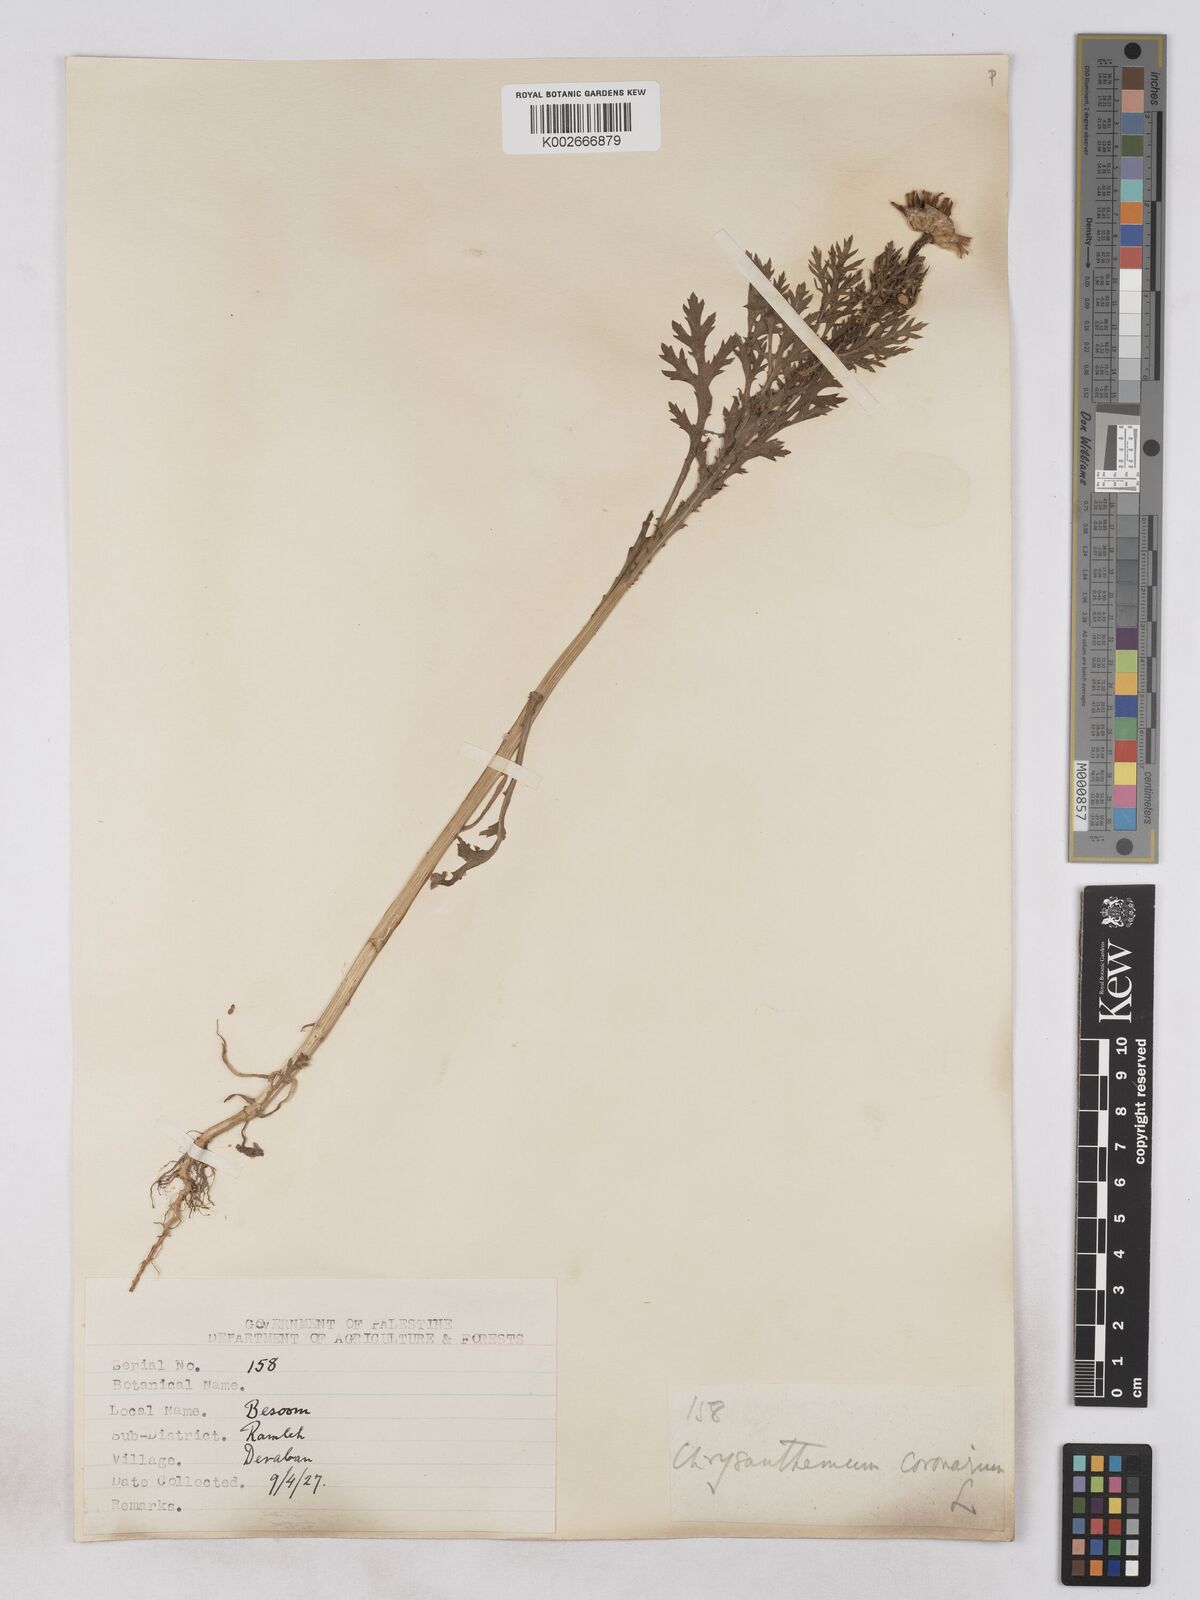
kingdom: Plantae
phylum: Tracheophyta
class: Magnoliopsida
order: Asterales
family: Asteraceae
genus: Glebionis
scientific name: Glebionis coronaria
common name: Crowndaisy
